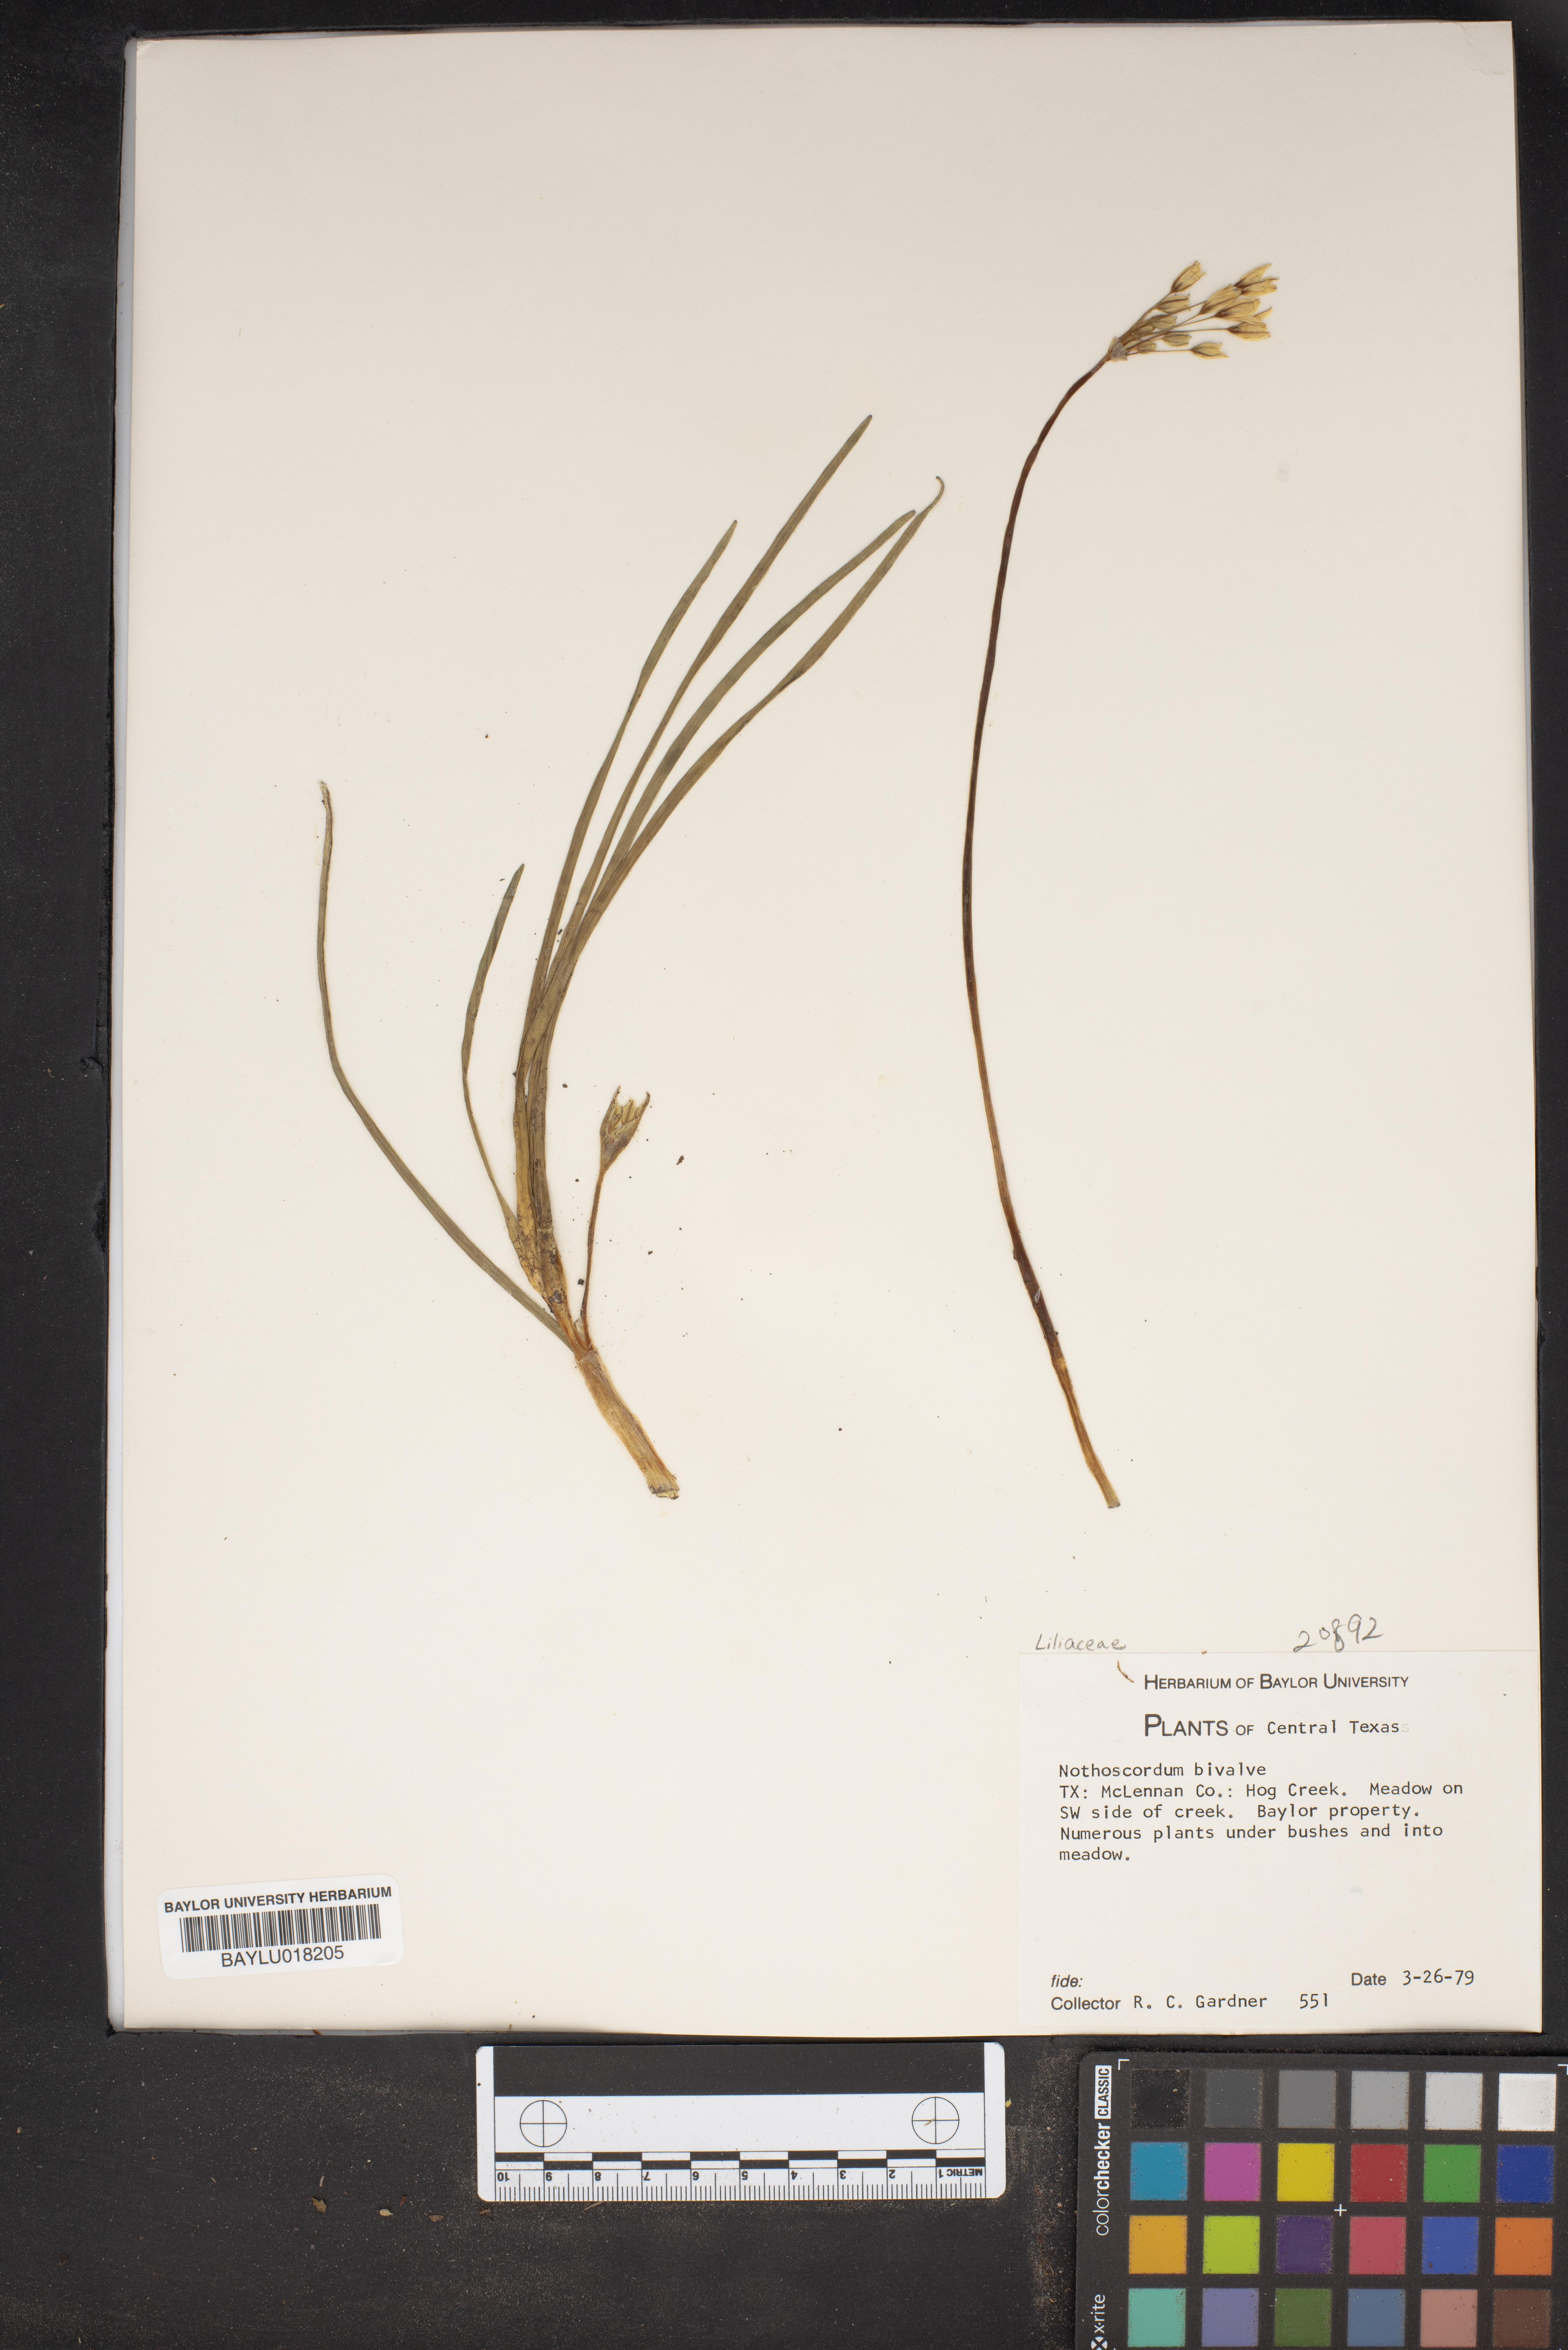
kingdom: Plantae
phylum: Tracheophyta
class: Liliopsida
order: Asparagales
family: Amaryllidaceae
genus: Nothoscordum
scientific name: Nothoscordum bivalve
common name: Crow-poison
